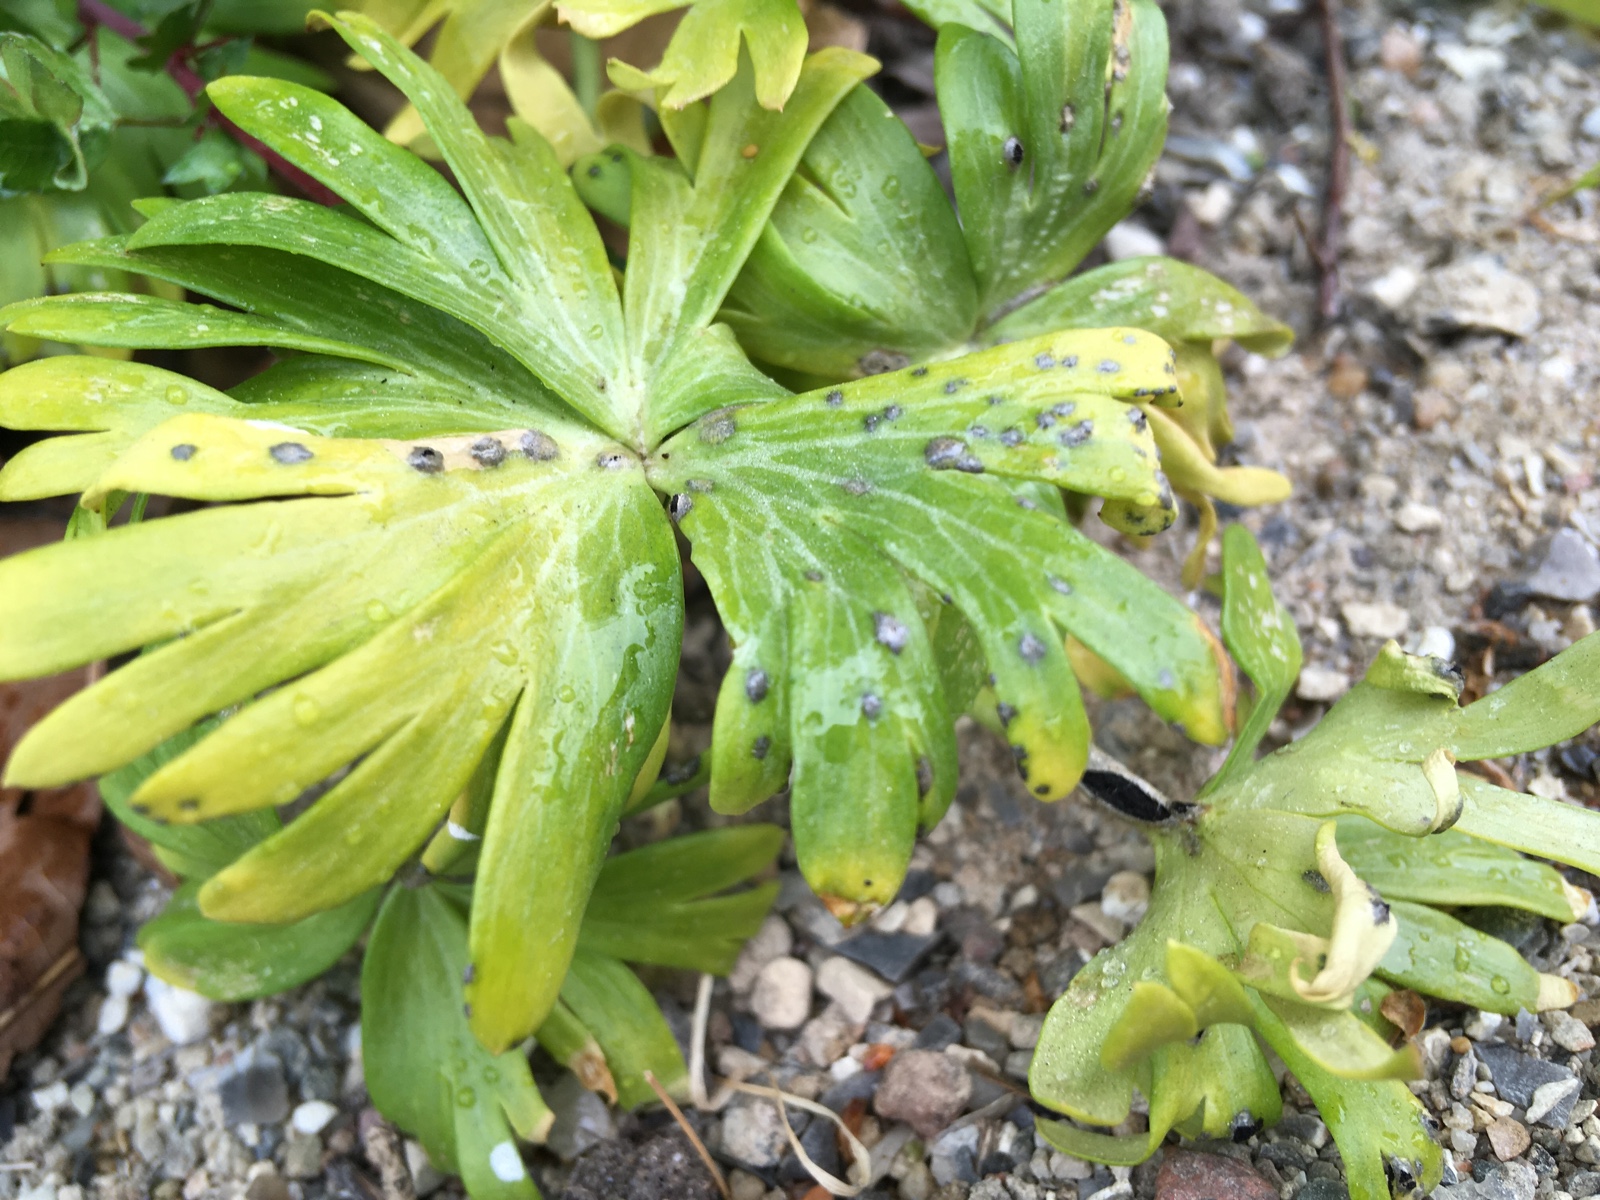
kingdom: Fungi
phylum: Basidiomycota
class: Ustilaginomycetes
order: Urocystidales
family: Urocystidaceae
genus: Urocystis
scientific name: Urocystis eranthidis
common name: erantis-brand
